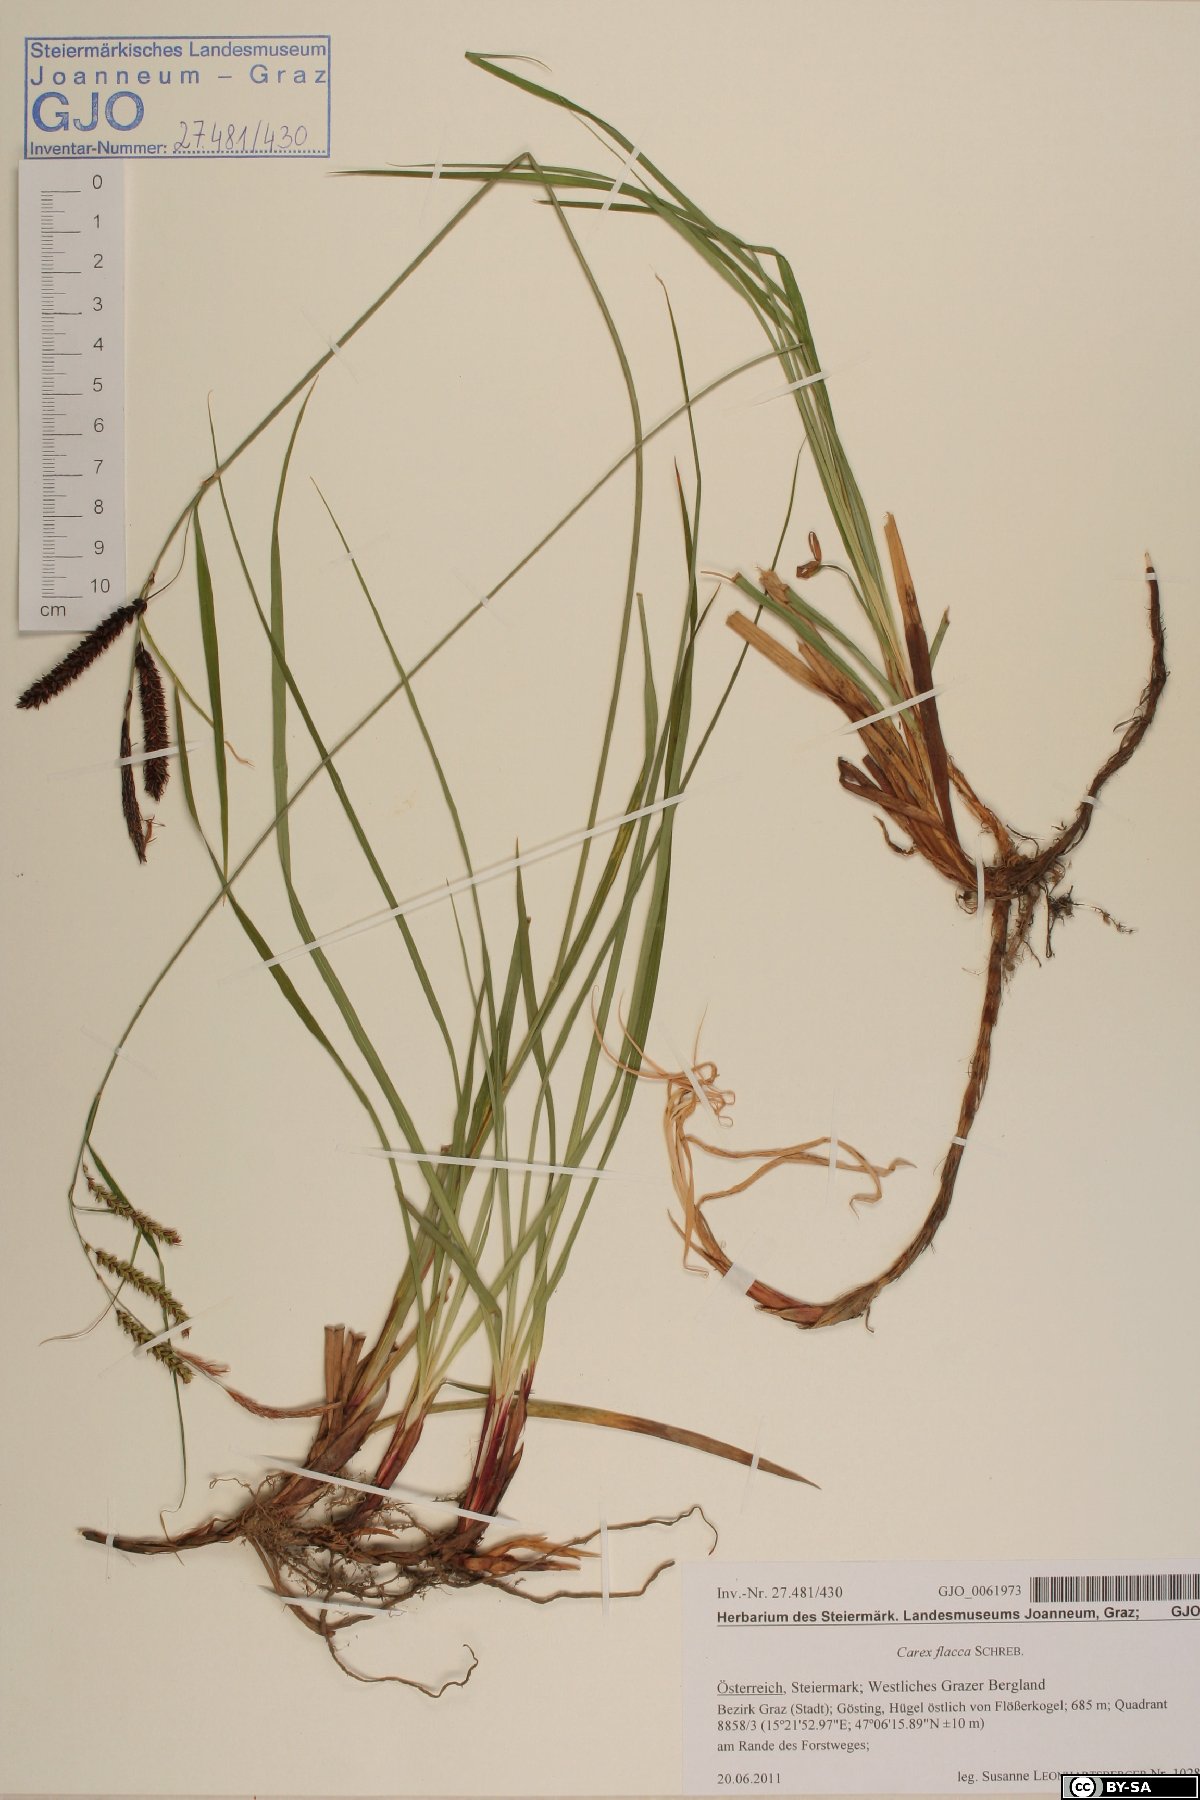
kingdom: Plantae
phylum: Tracheophyta
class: Liliopsida
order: Poales
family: Cyperaceae
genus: Carex
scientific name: Carex flacca
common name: Glaucous sedge
